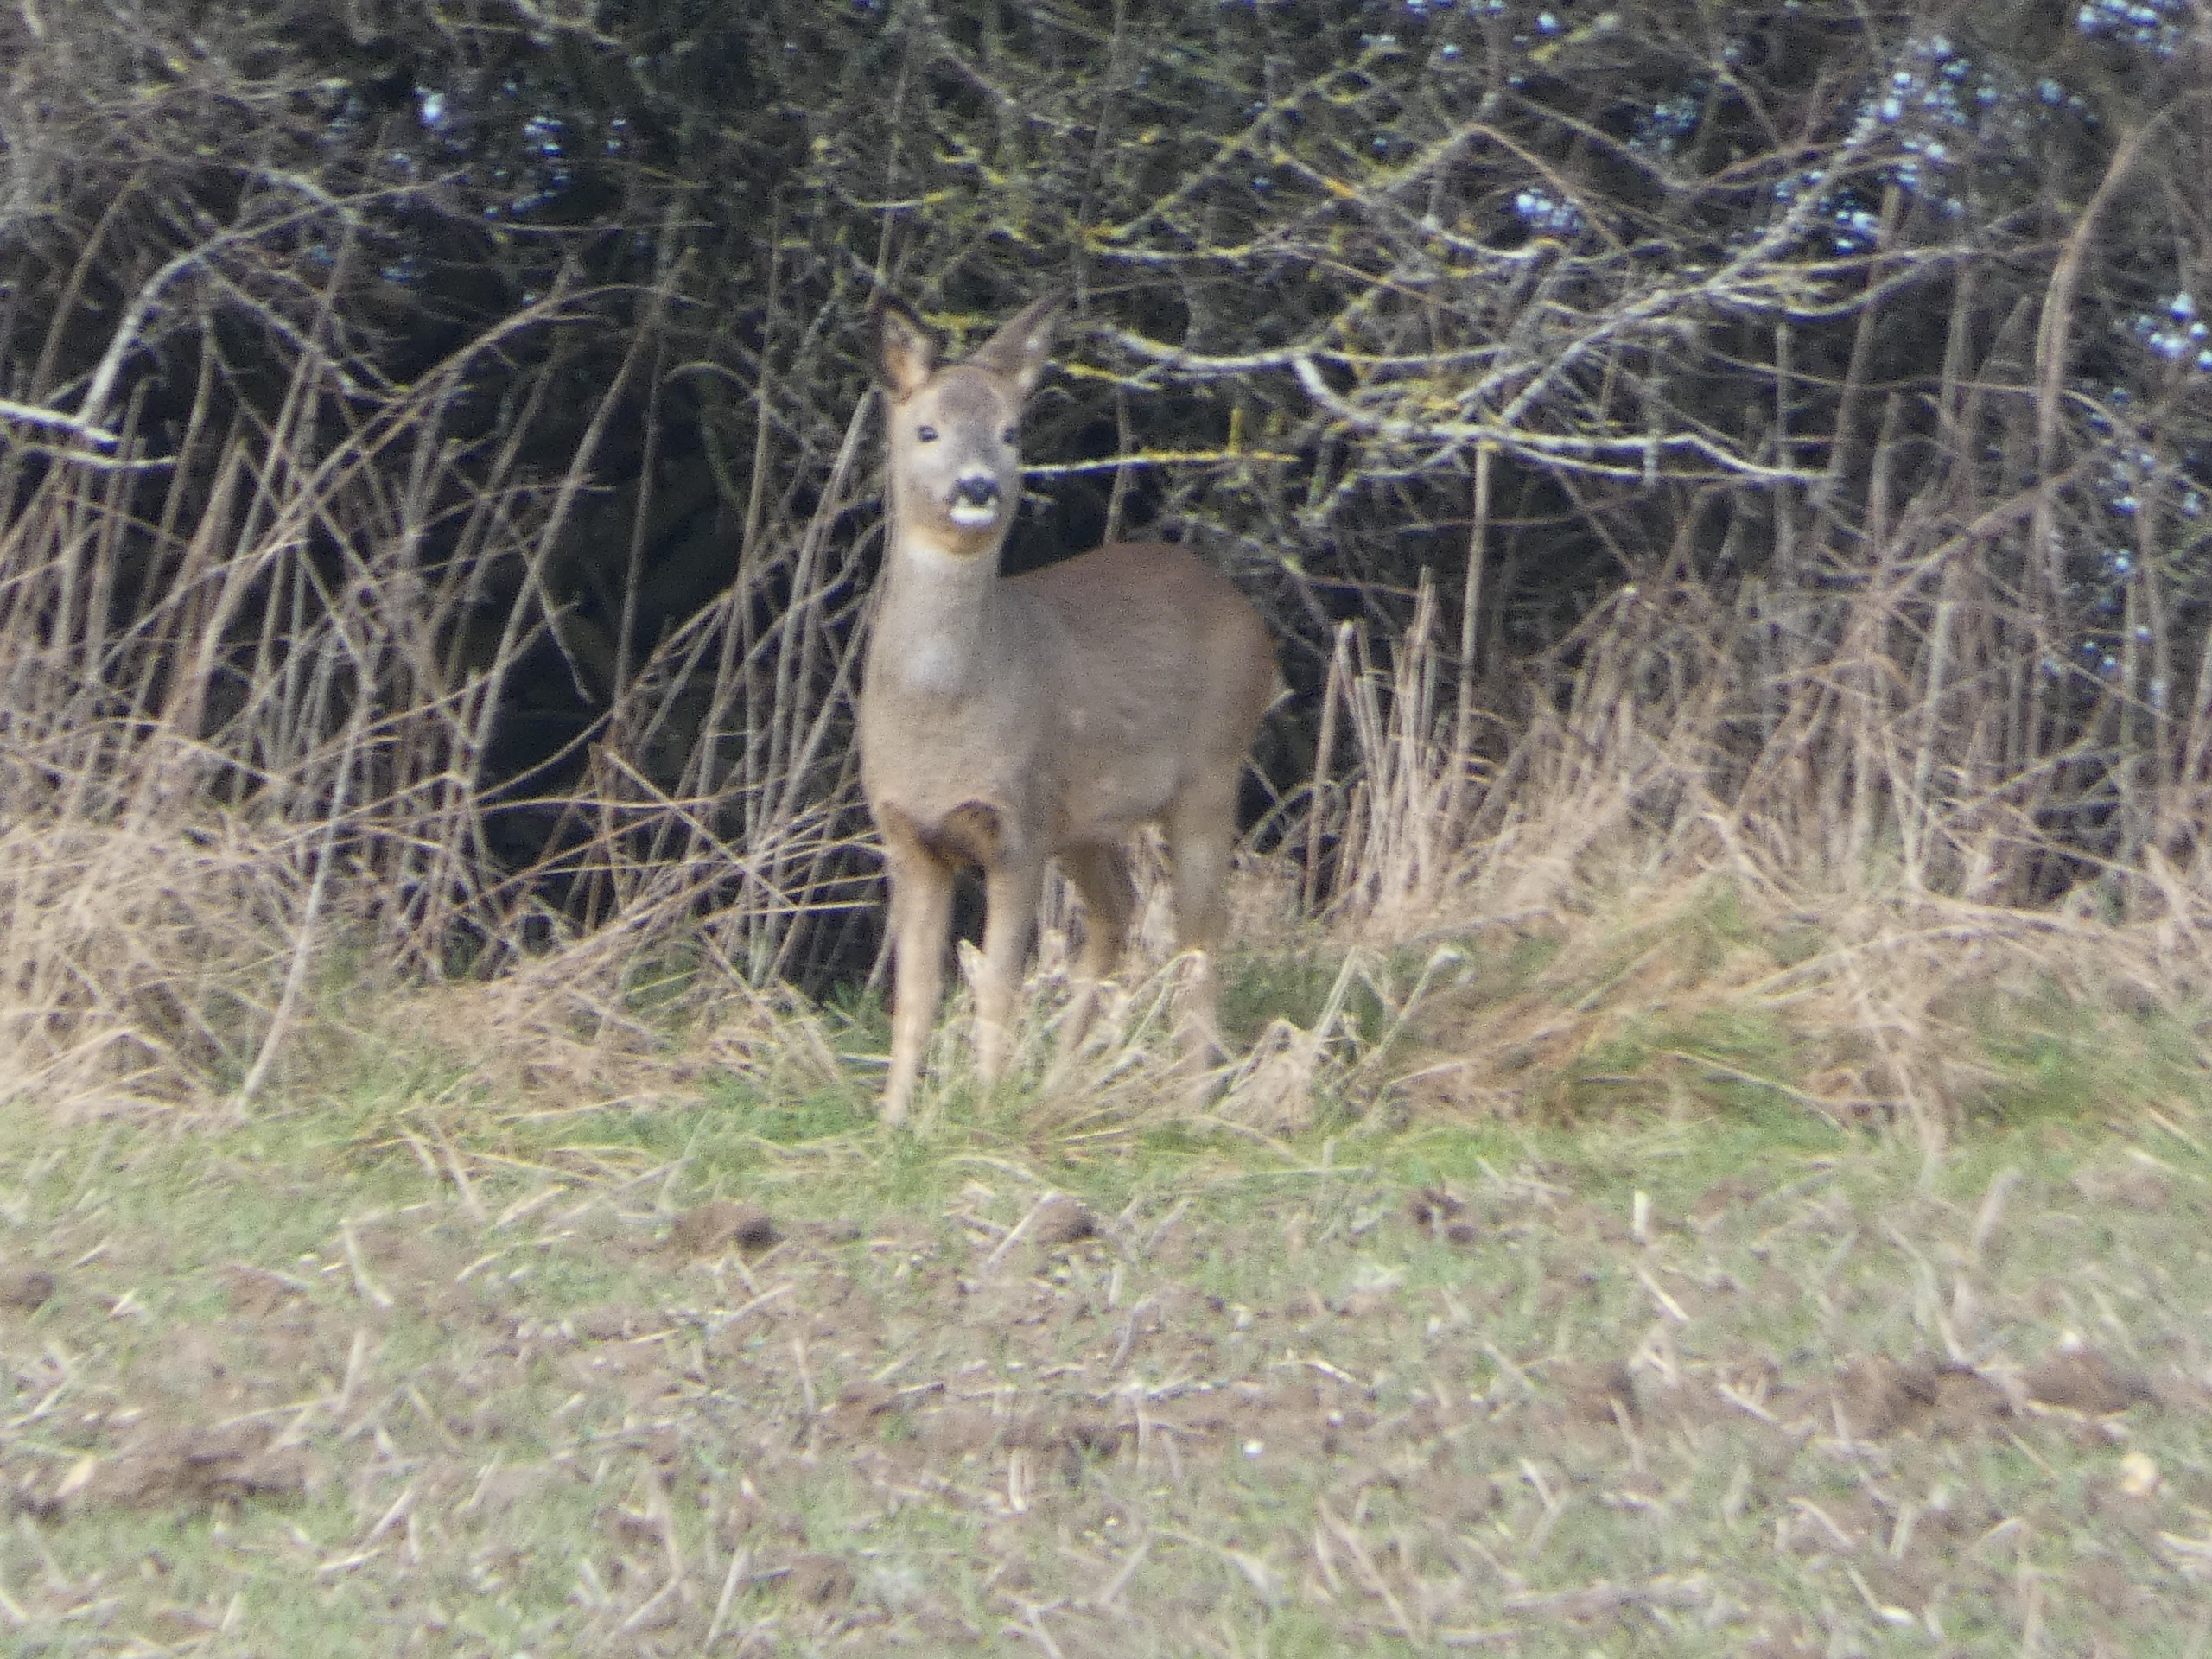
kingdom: Animalia
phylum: Chordata
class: Mammalia
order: Artiodactyla
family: Cervidae
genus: Capreolus
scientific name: Capreolus capreolus
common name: Rådyr
